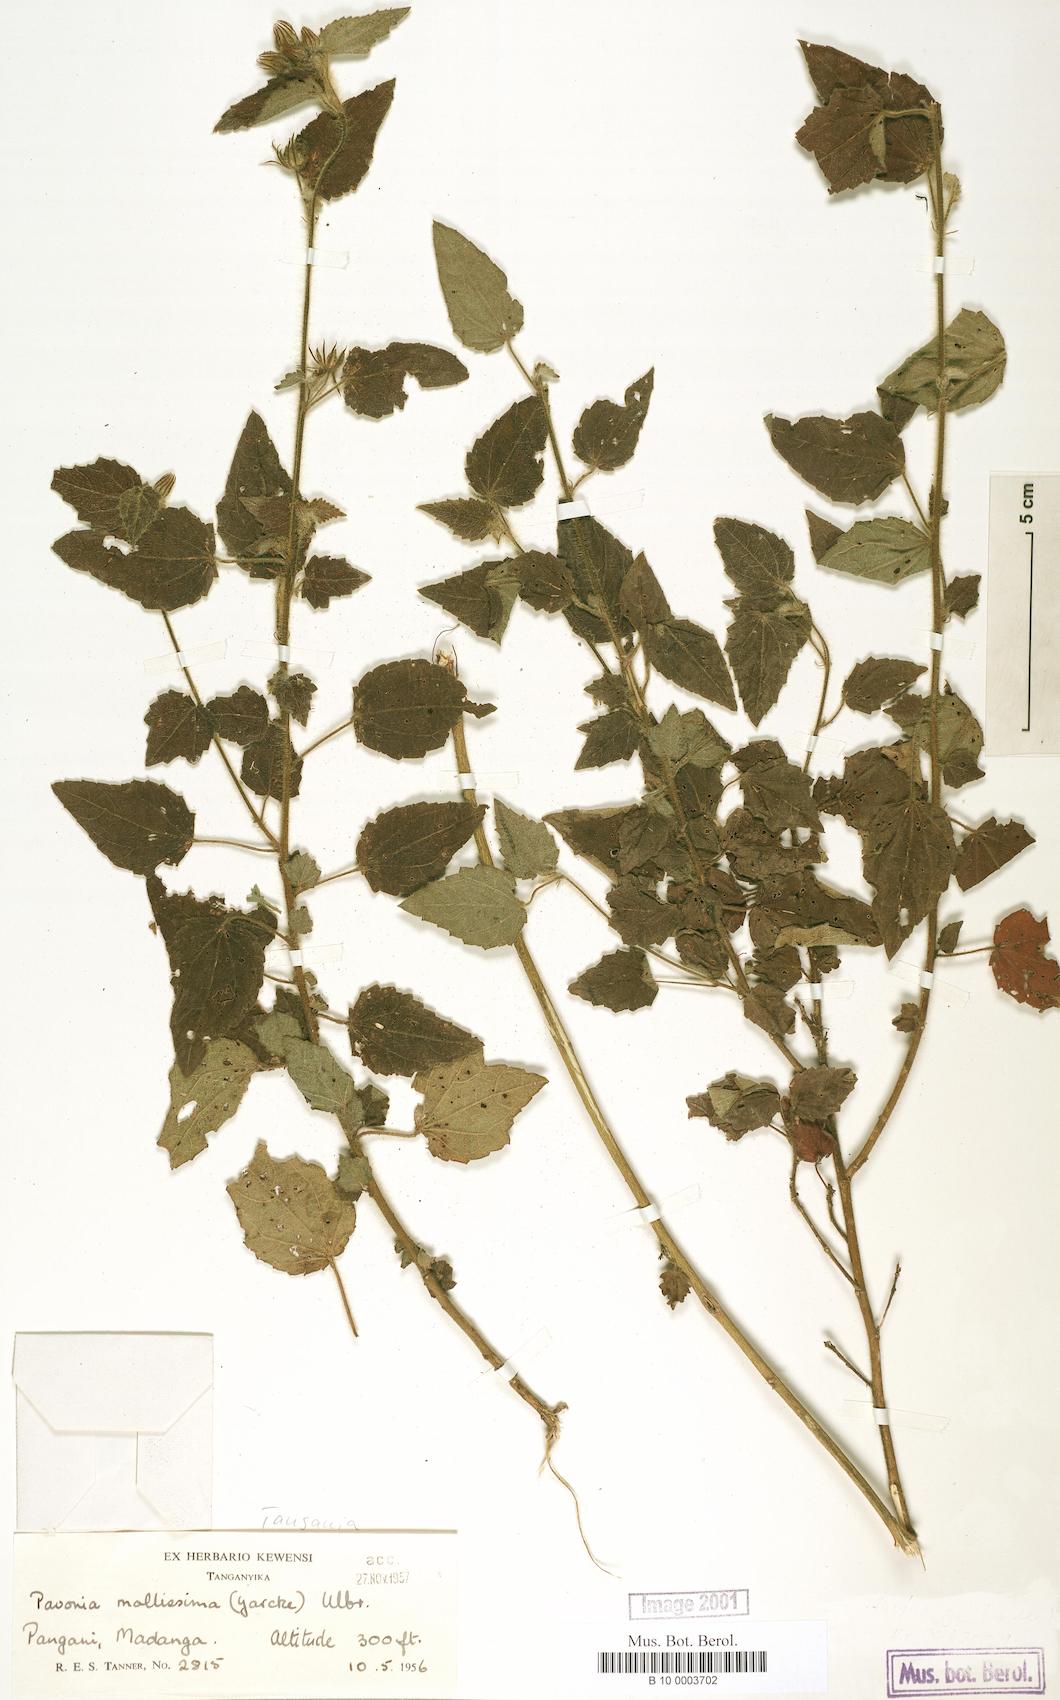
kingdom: Plantae
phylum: Tracheophyta
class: Magnoliopsida
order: Malvales
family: Malvaceae
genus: Pavonia
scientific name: Pavonia mollissima
